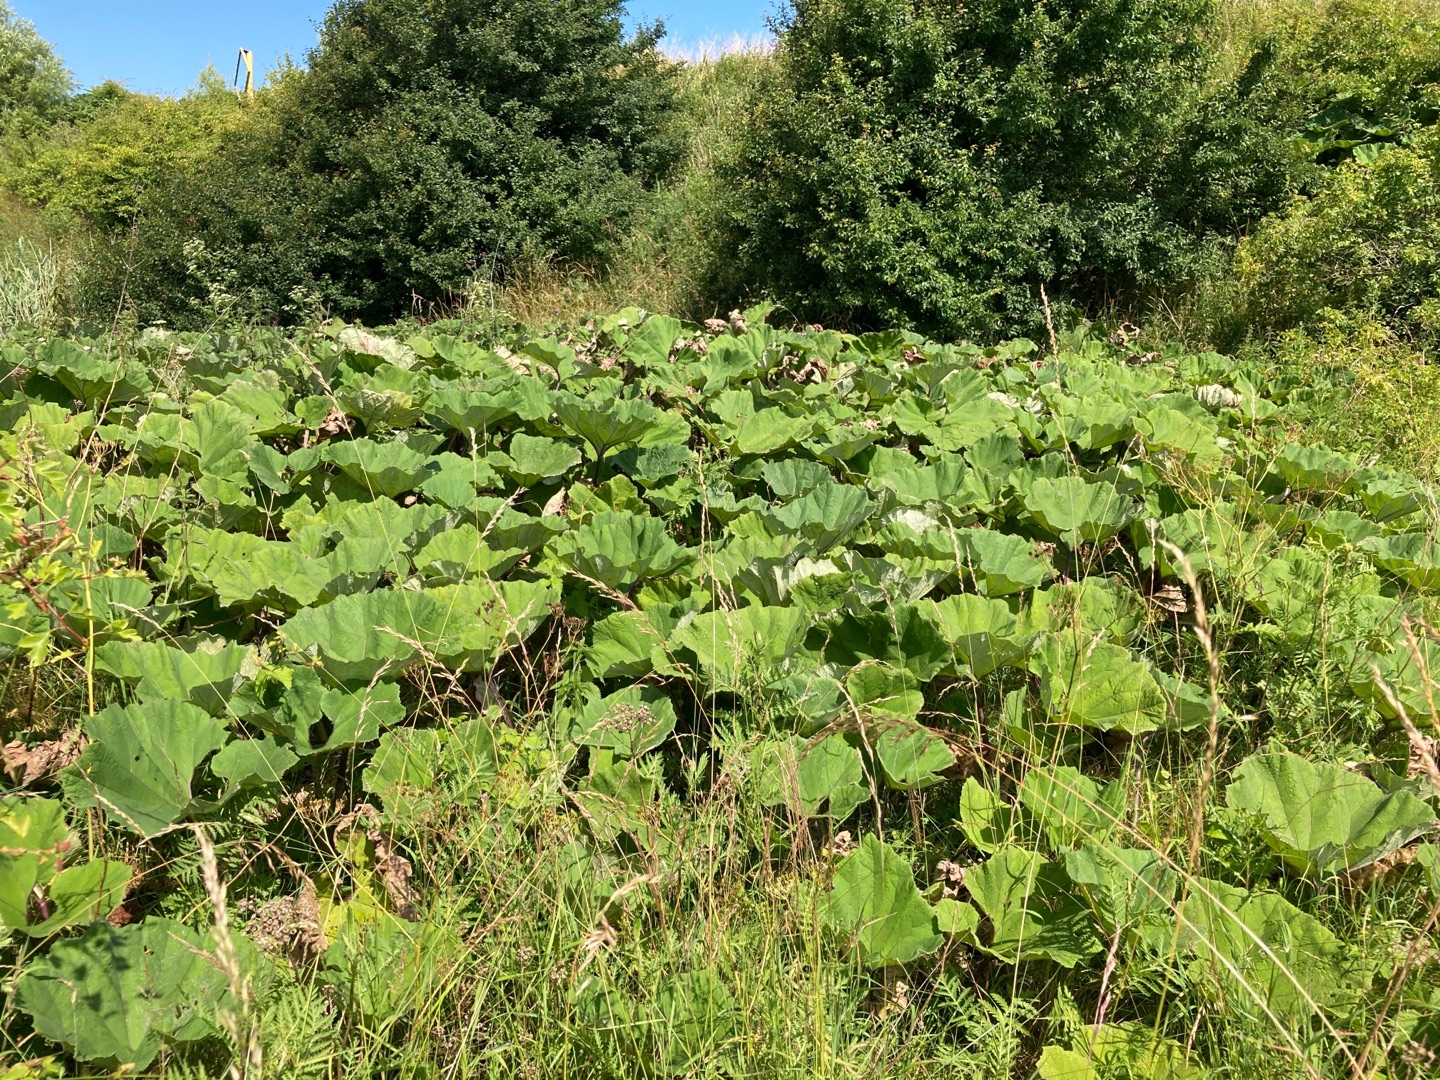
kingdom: Plantae
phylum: Tracheophyta
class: Magnoliopsida
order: Asterales
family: Asteraceae
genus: Petasites
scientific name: Petasites hybridus
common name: Rød hestehov
